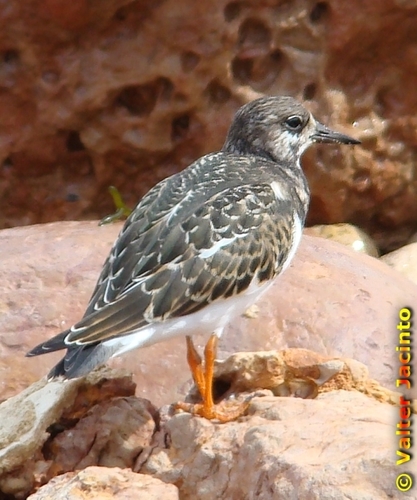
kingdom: Animalia
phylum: Chordata
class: Aves
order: Charadriiformes
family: Scolopacidae
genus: Arenaria
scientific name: Arenaria interpres
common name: Ruddy turnstone
